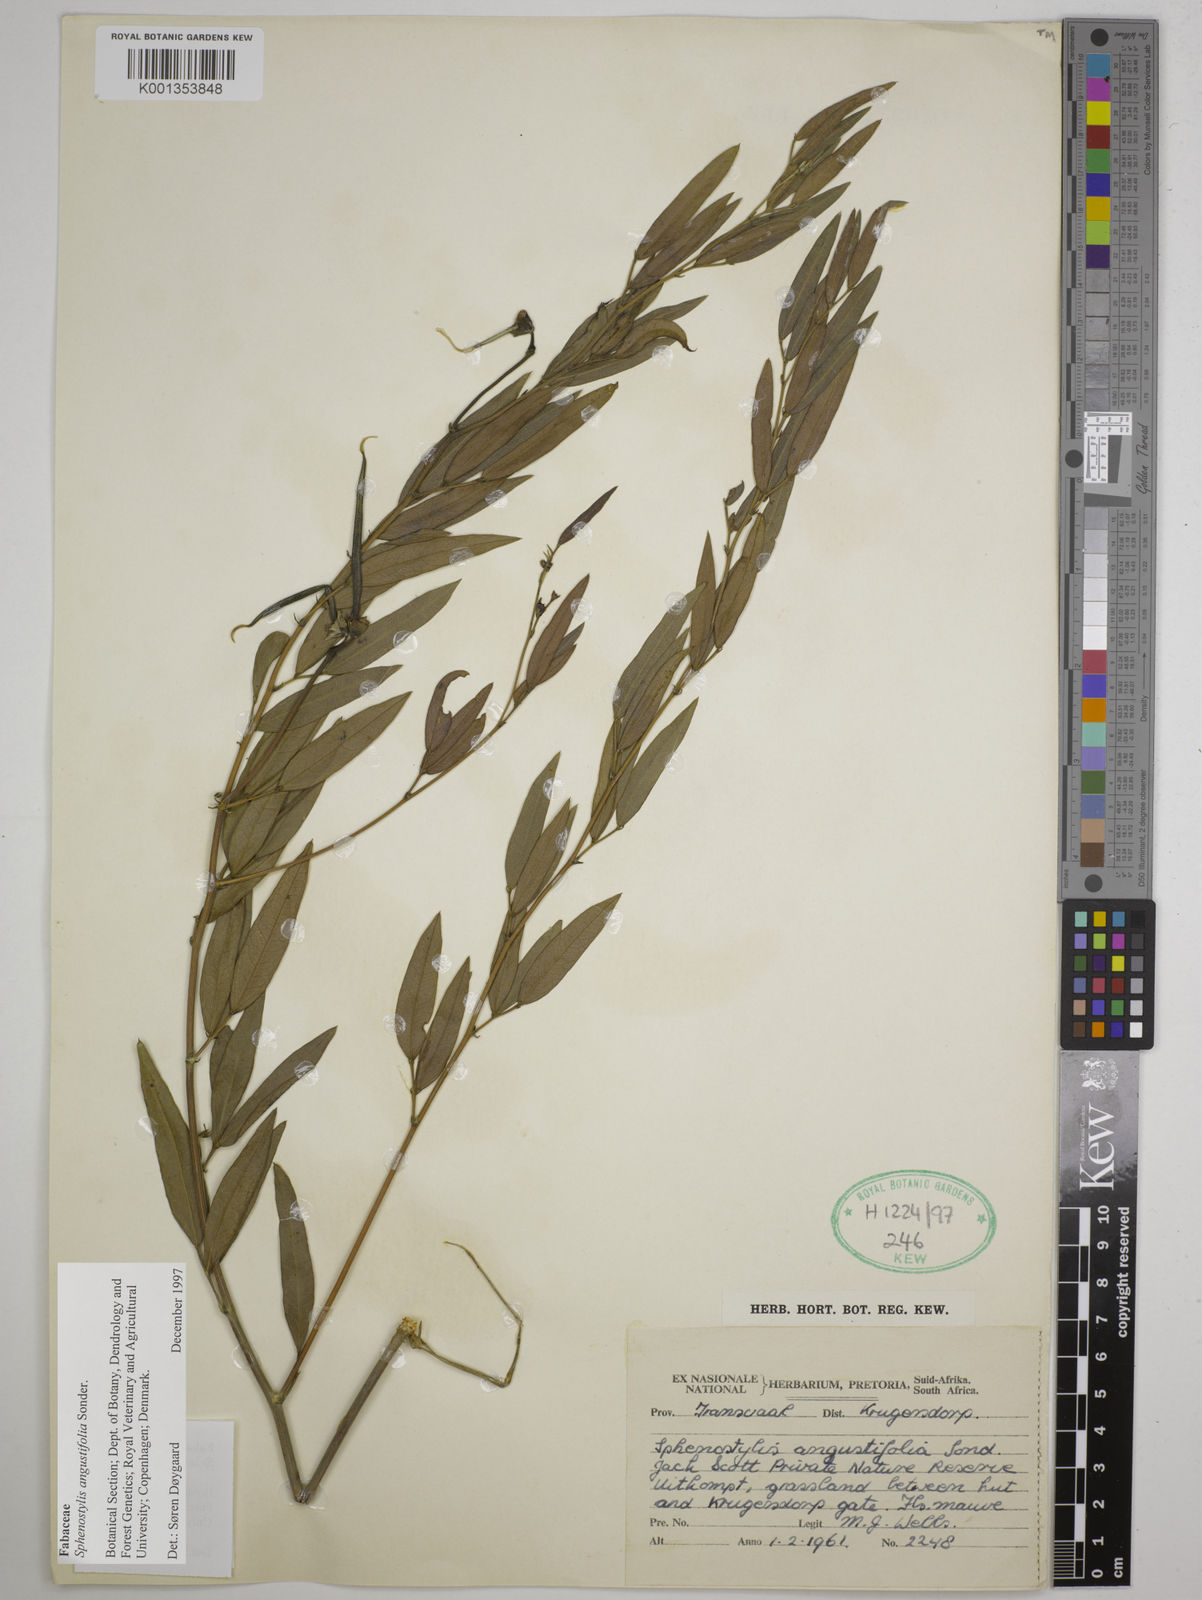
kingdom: Plantae
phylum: Tracheophyta
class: Magnoliopsida
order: Fabales
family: Fabaceae
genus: Sphenostylis
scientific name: Sphenostylis angustifolia
